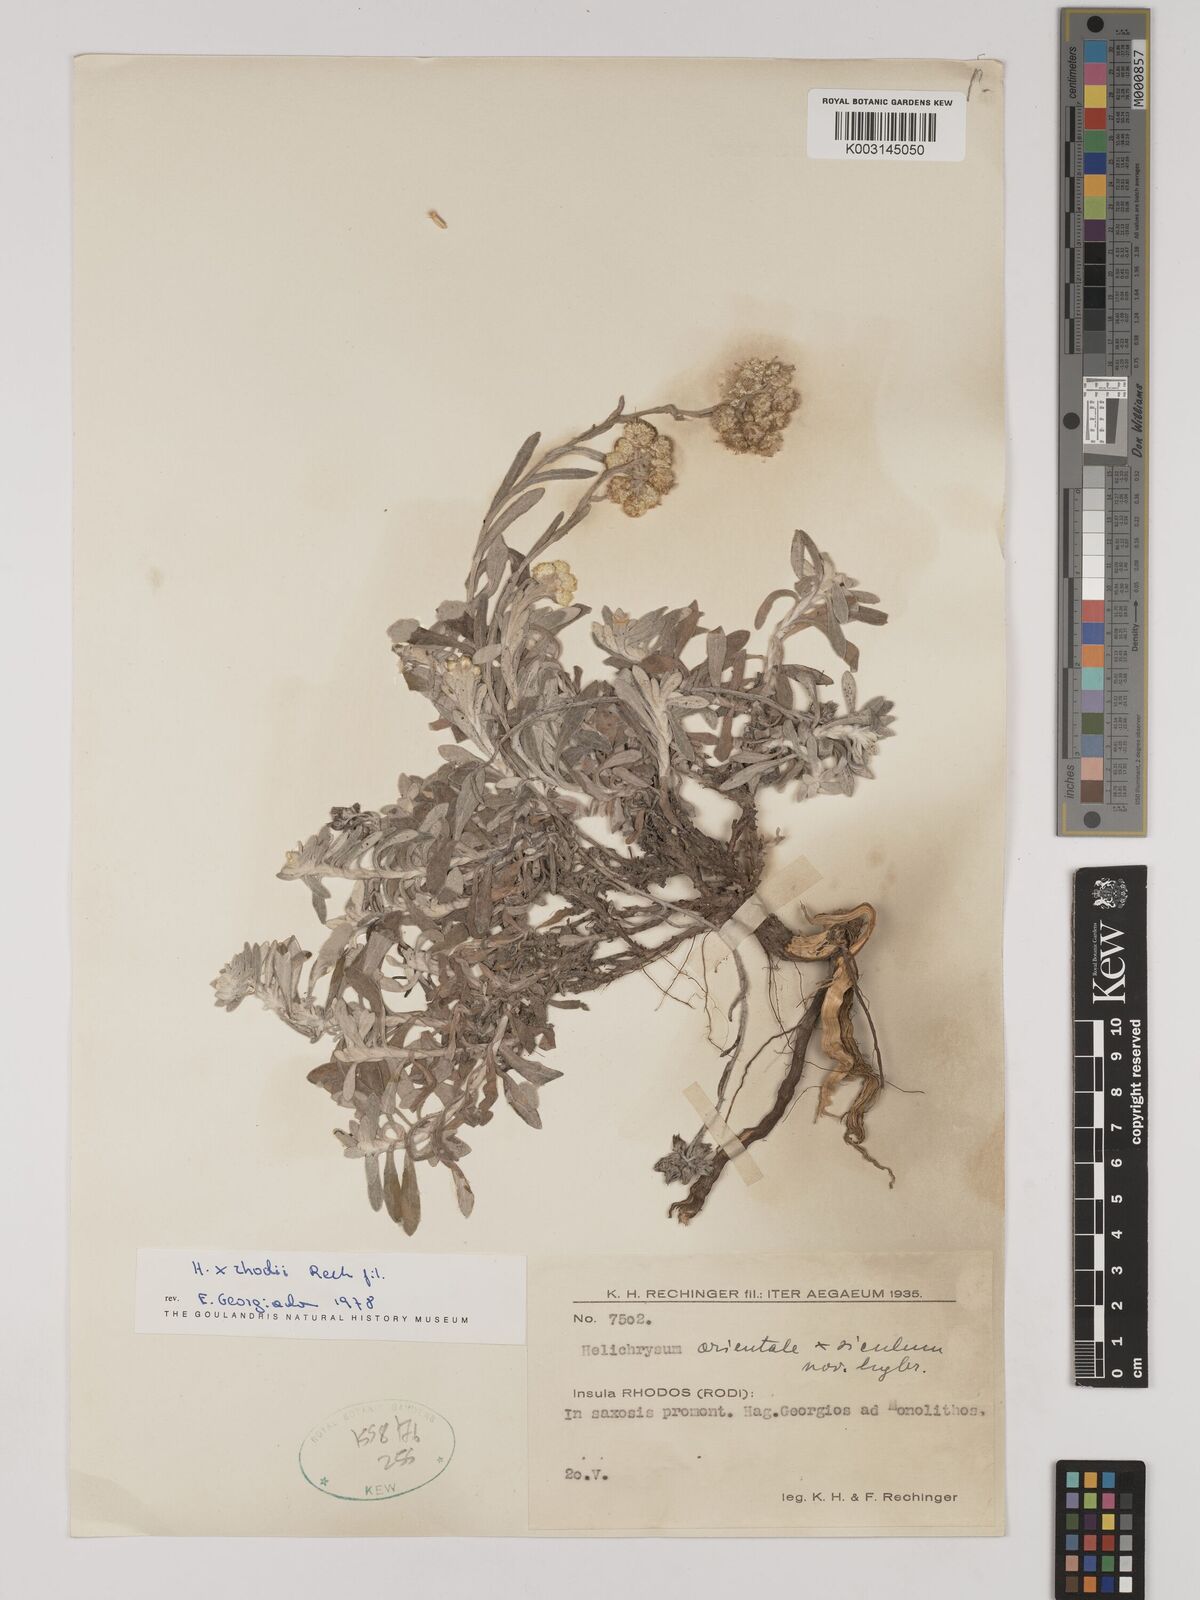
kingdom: Plantae
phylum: Tracheophyta
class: Magnoliopsida
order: Asterales
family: Asteraceae
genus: Helichrysum
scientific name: Helichrysum orientale
